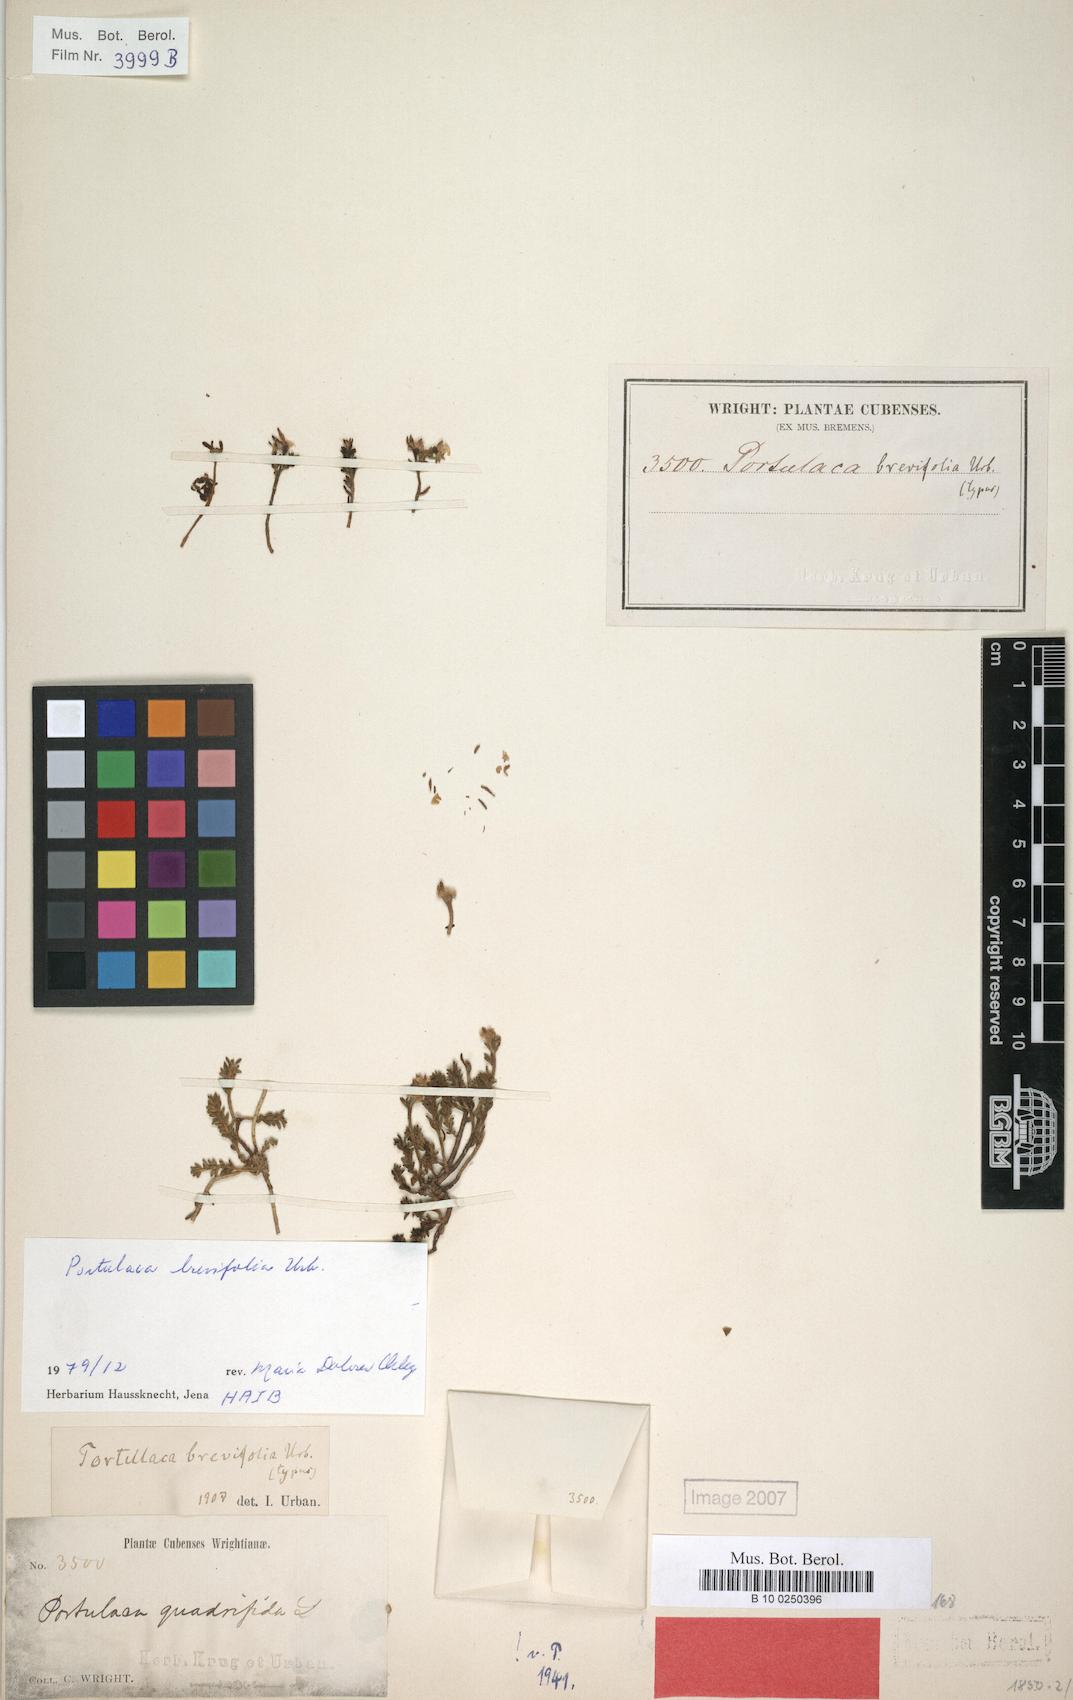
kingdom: Plantae
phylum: Tracheophyta
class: Magnoliopsida
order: Caryophyllales
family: Portulacaceae
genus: Portulaca
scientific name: Portulaca brevifolia
